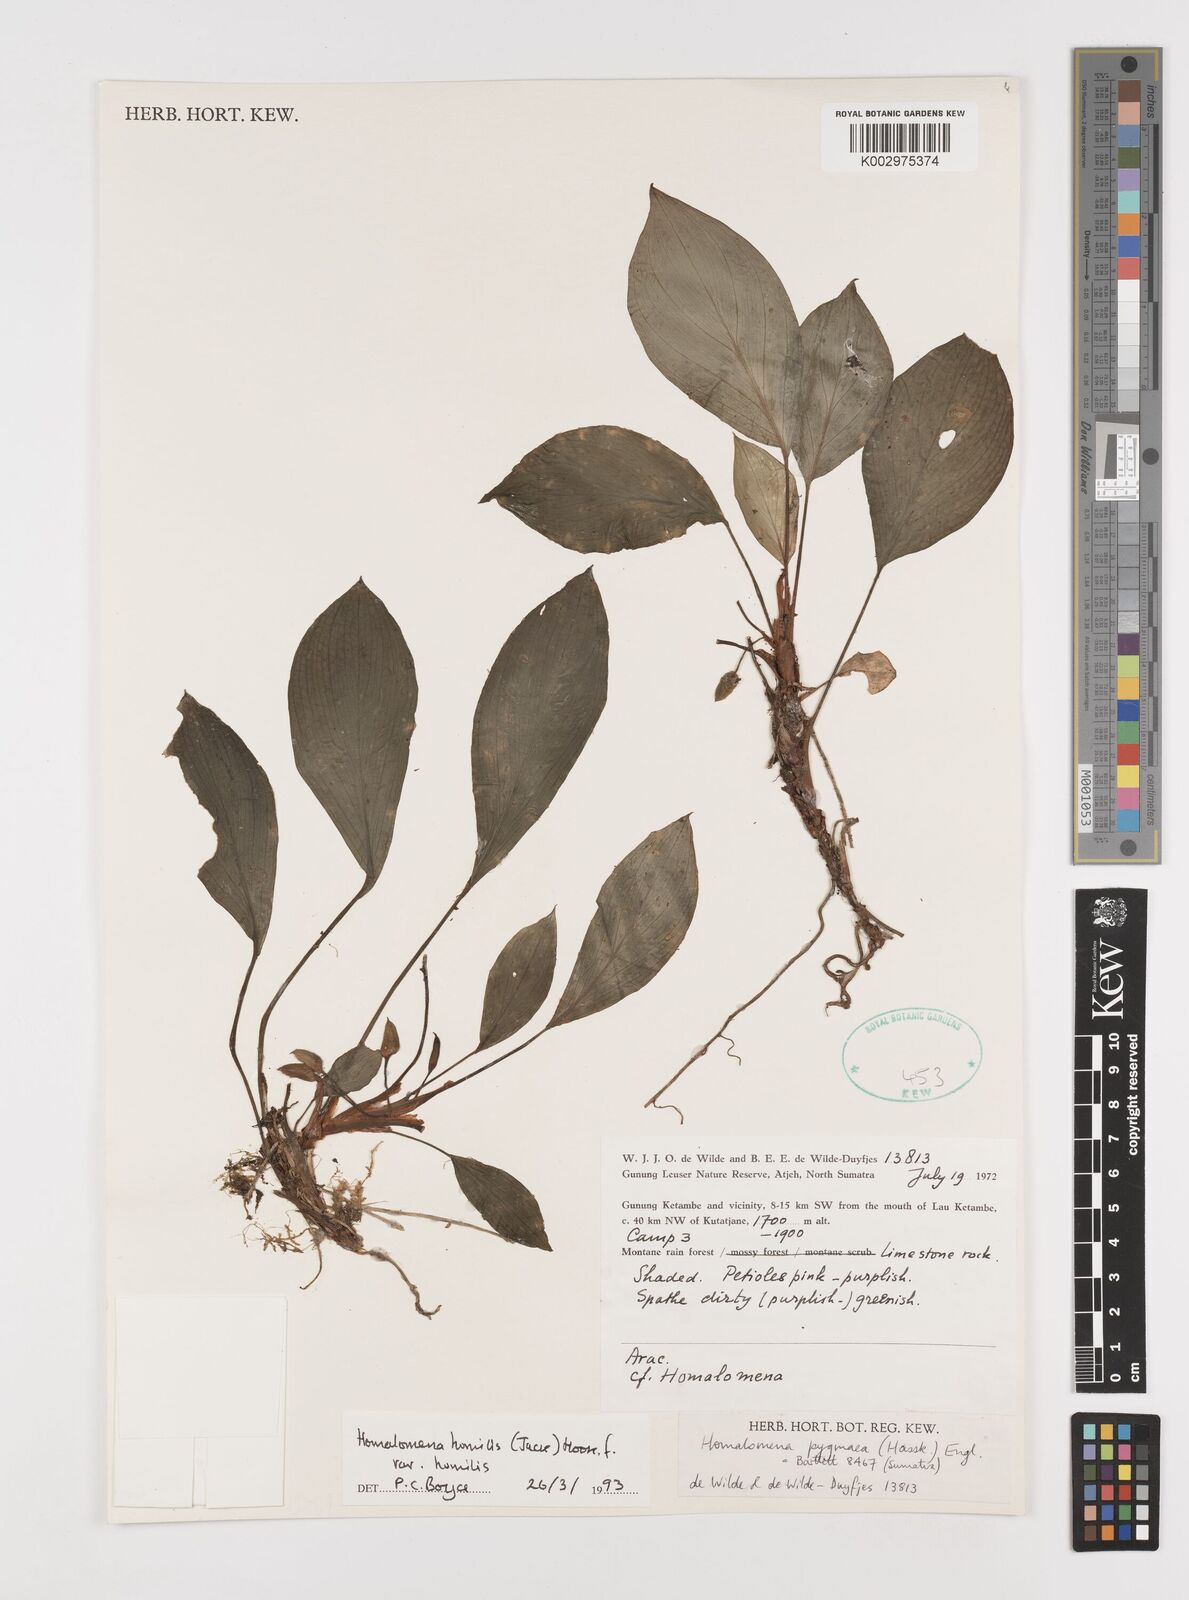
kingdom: Plantae
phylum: Tracheophyta
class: Liliopsida
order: Alismatales
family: Araceae
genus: Homalomena
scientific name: Homalomena humilis
